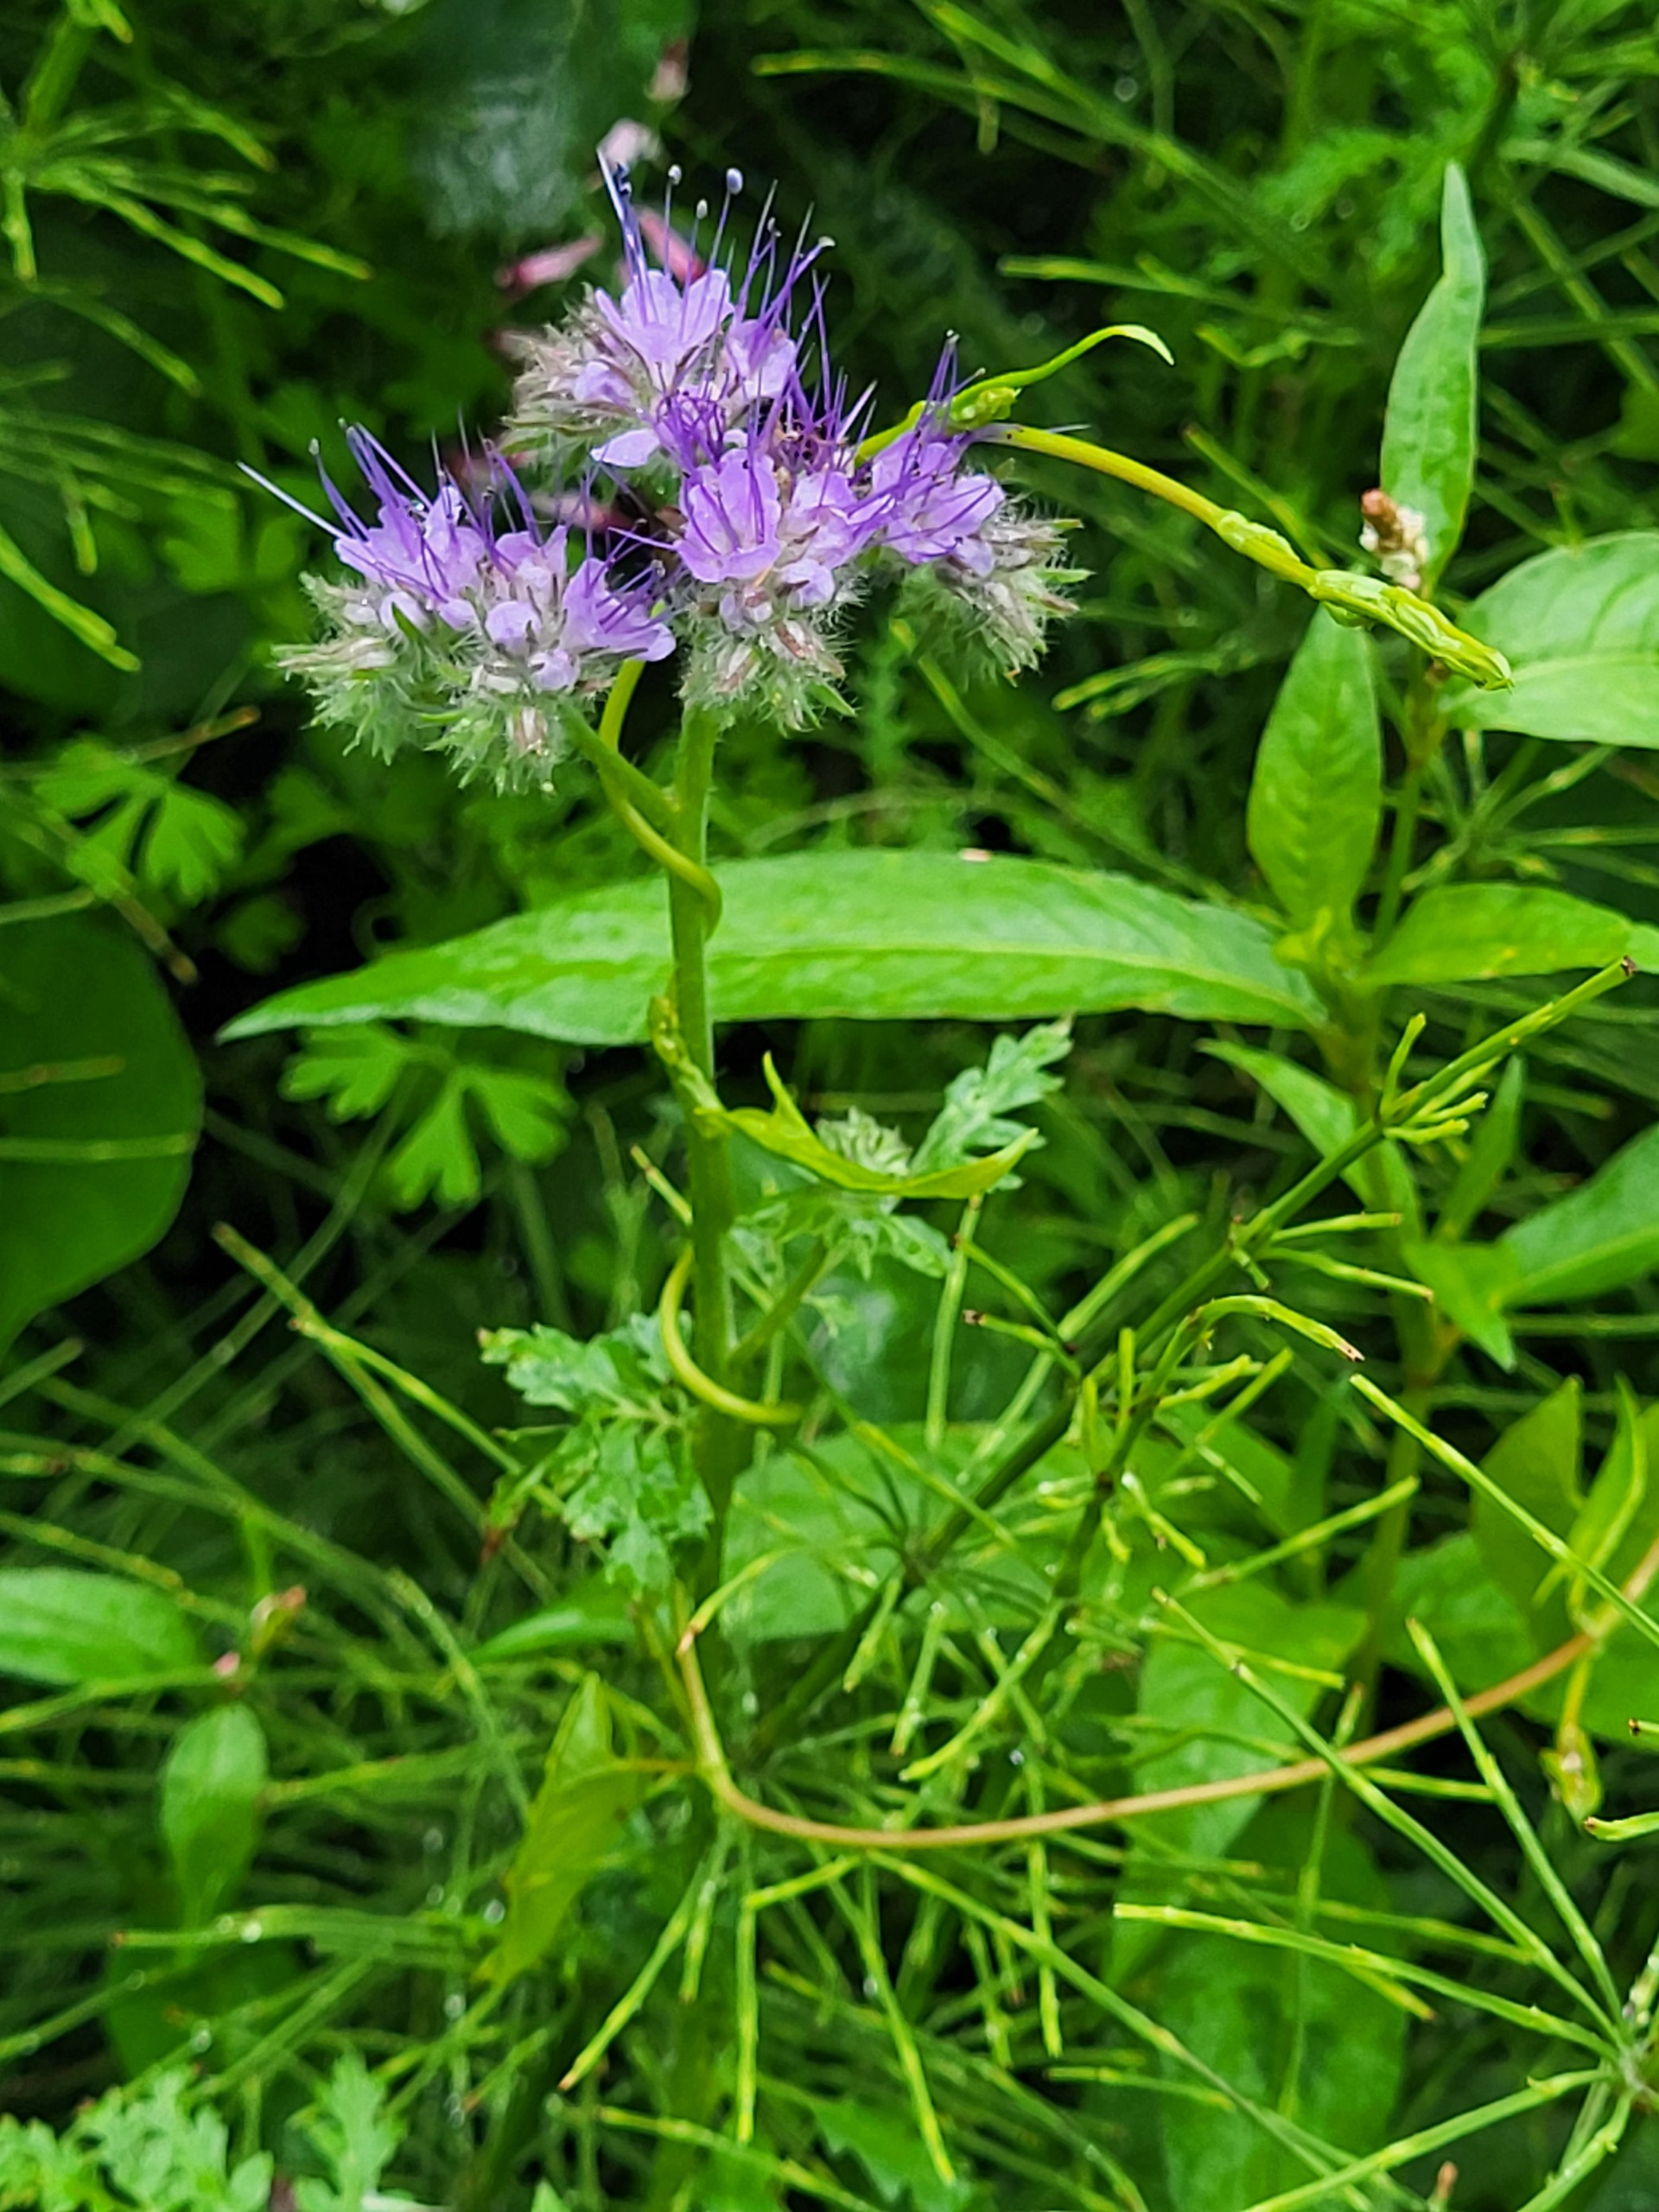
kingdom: Plantae
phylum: Tracheophyta
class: Magnoliopsida
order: Boraginales
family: Hydrophyllaceae
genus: Phacelia
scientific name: Phacelia tanacetifolia
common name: Honningurt
